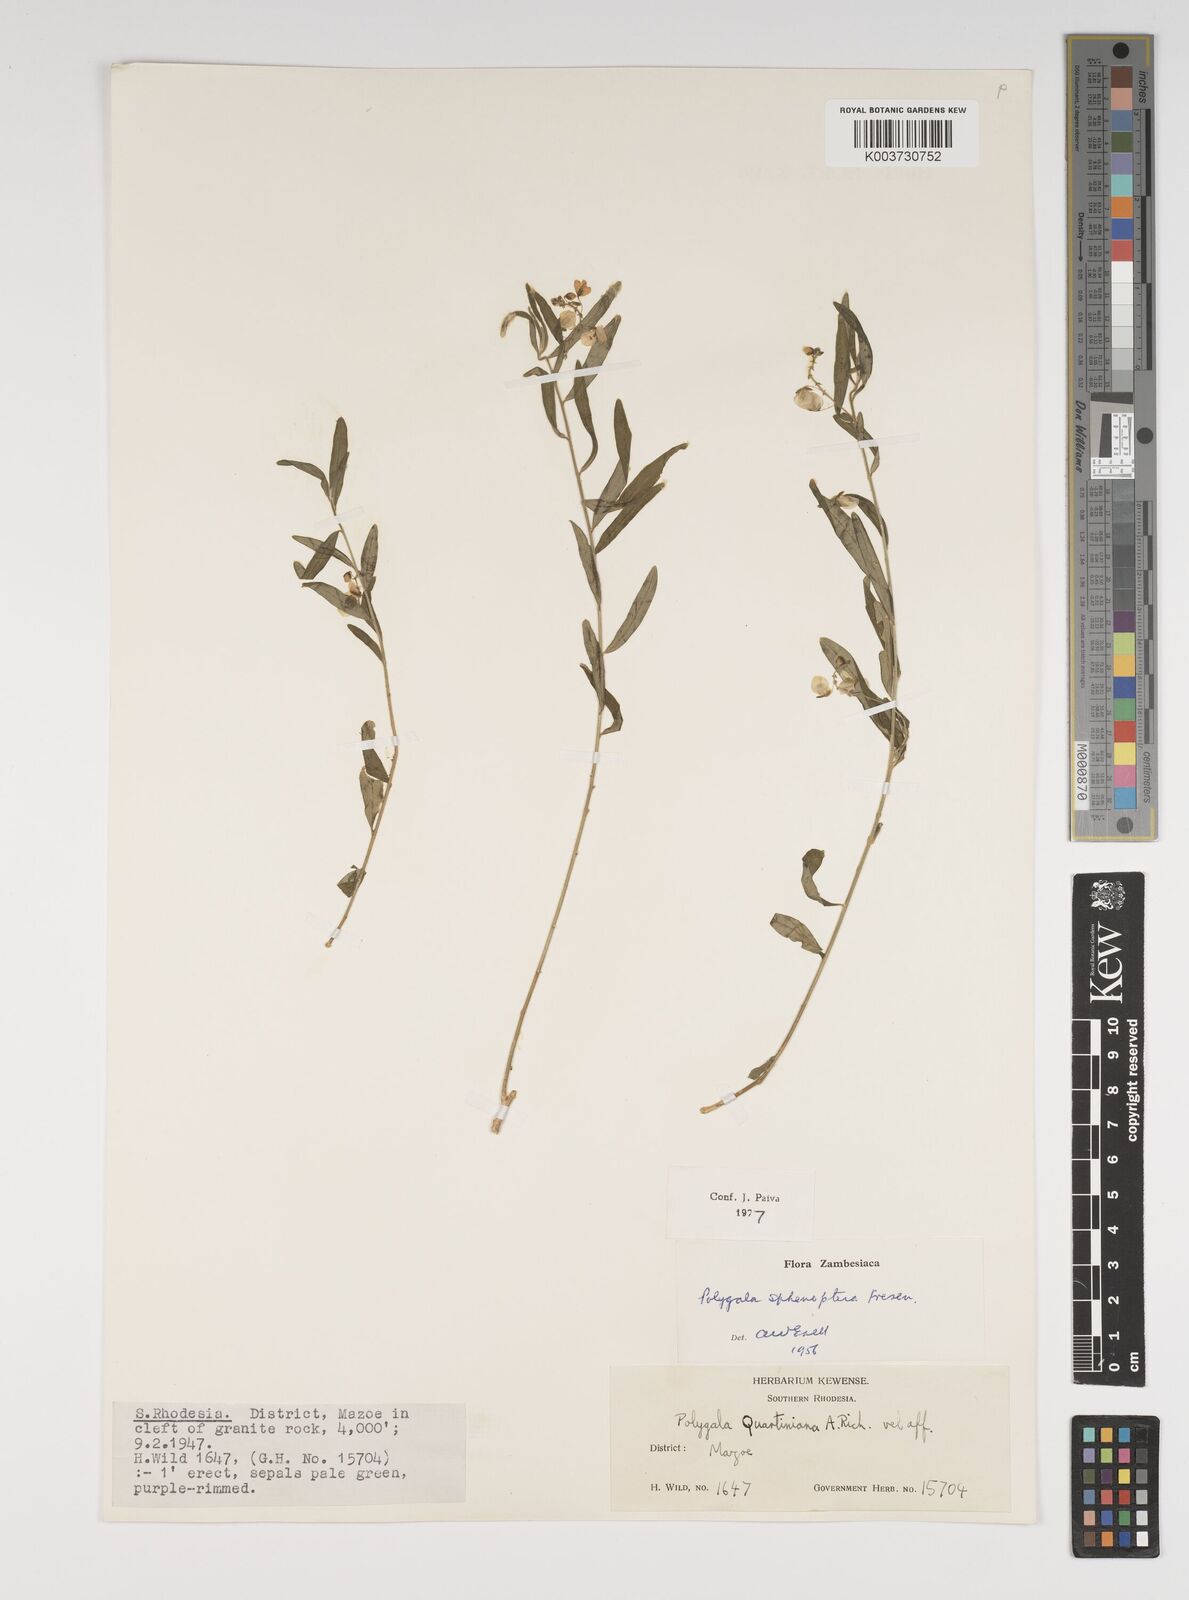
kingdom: Plantae
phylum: Tracheophyta
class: Magnoliopsida
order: Fabales
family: Polygalaceae
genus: Polygala
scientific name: Polygala sphenoptera
